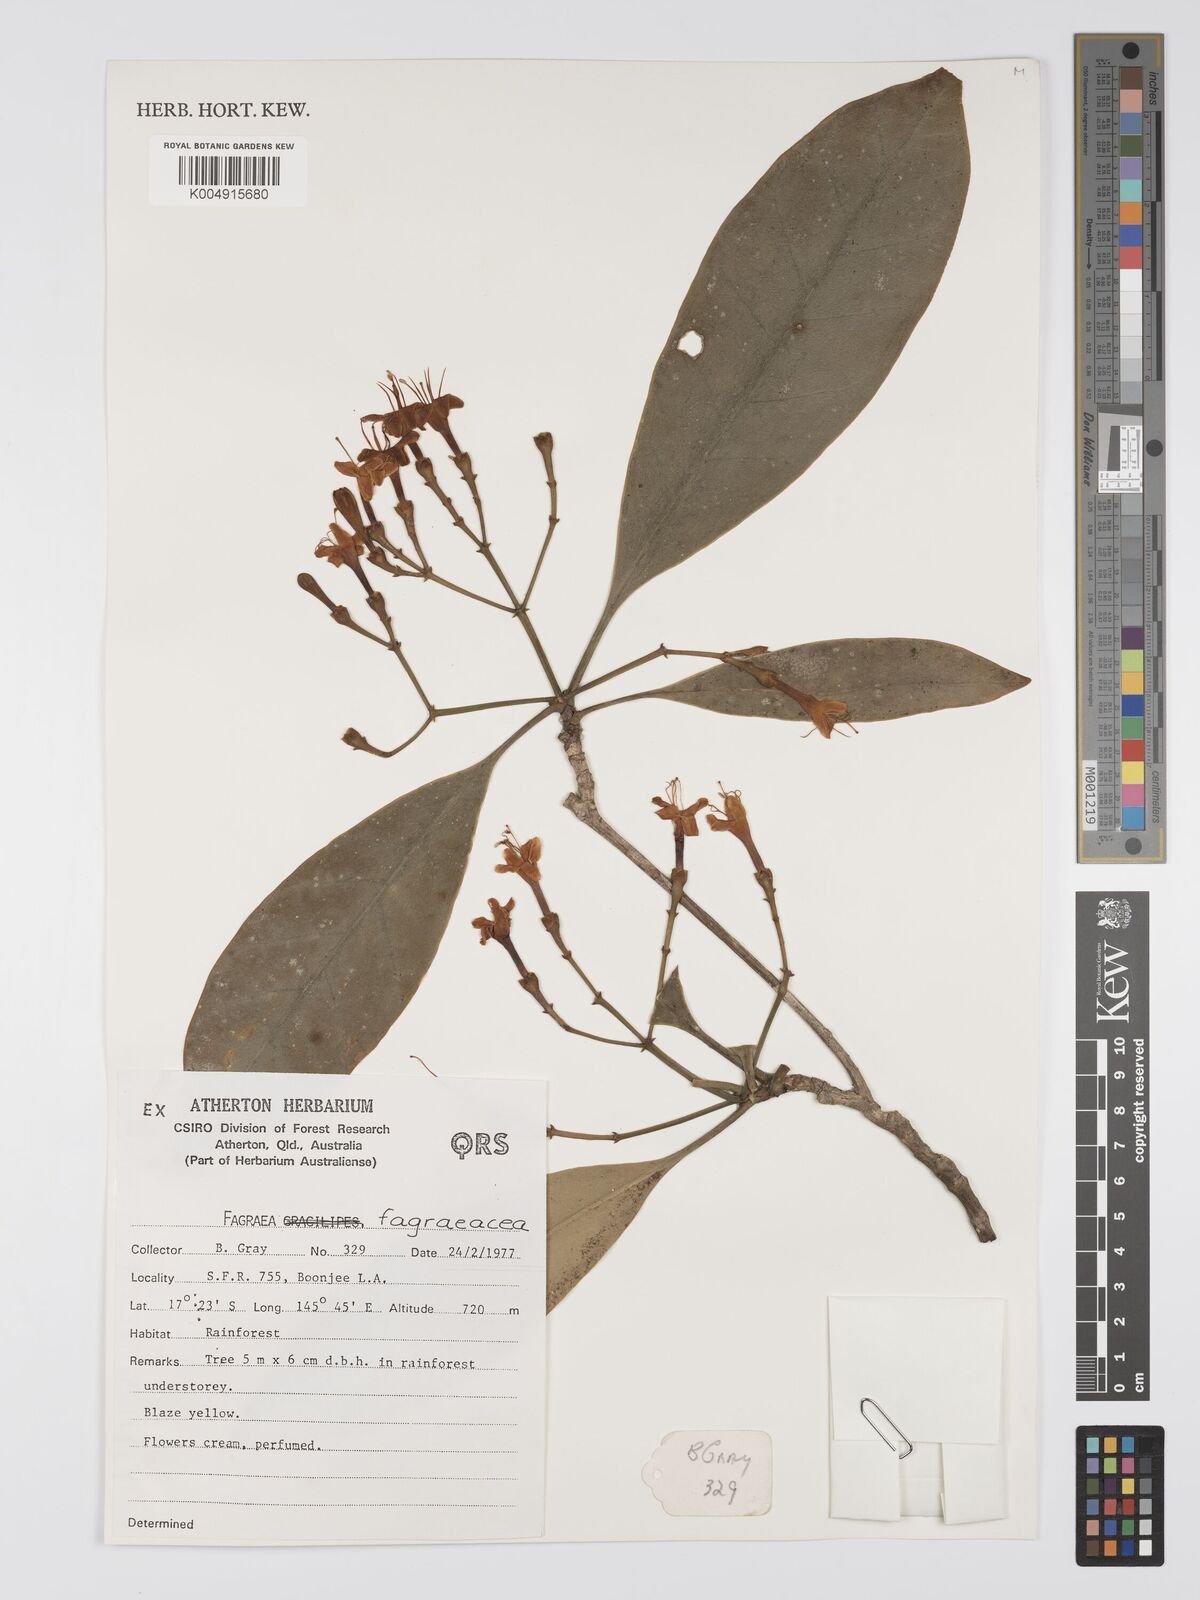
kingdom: Plantae
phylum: Tracheophyta
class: Magnoliopsida
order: Gentianales
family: Gentianaceae
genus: Fagraea
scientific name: Fagraea
